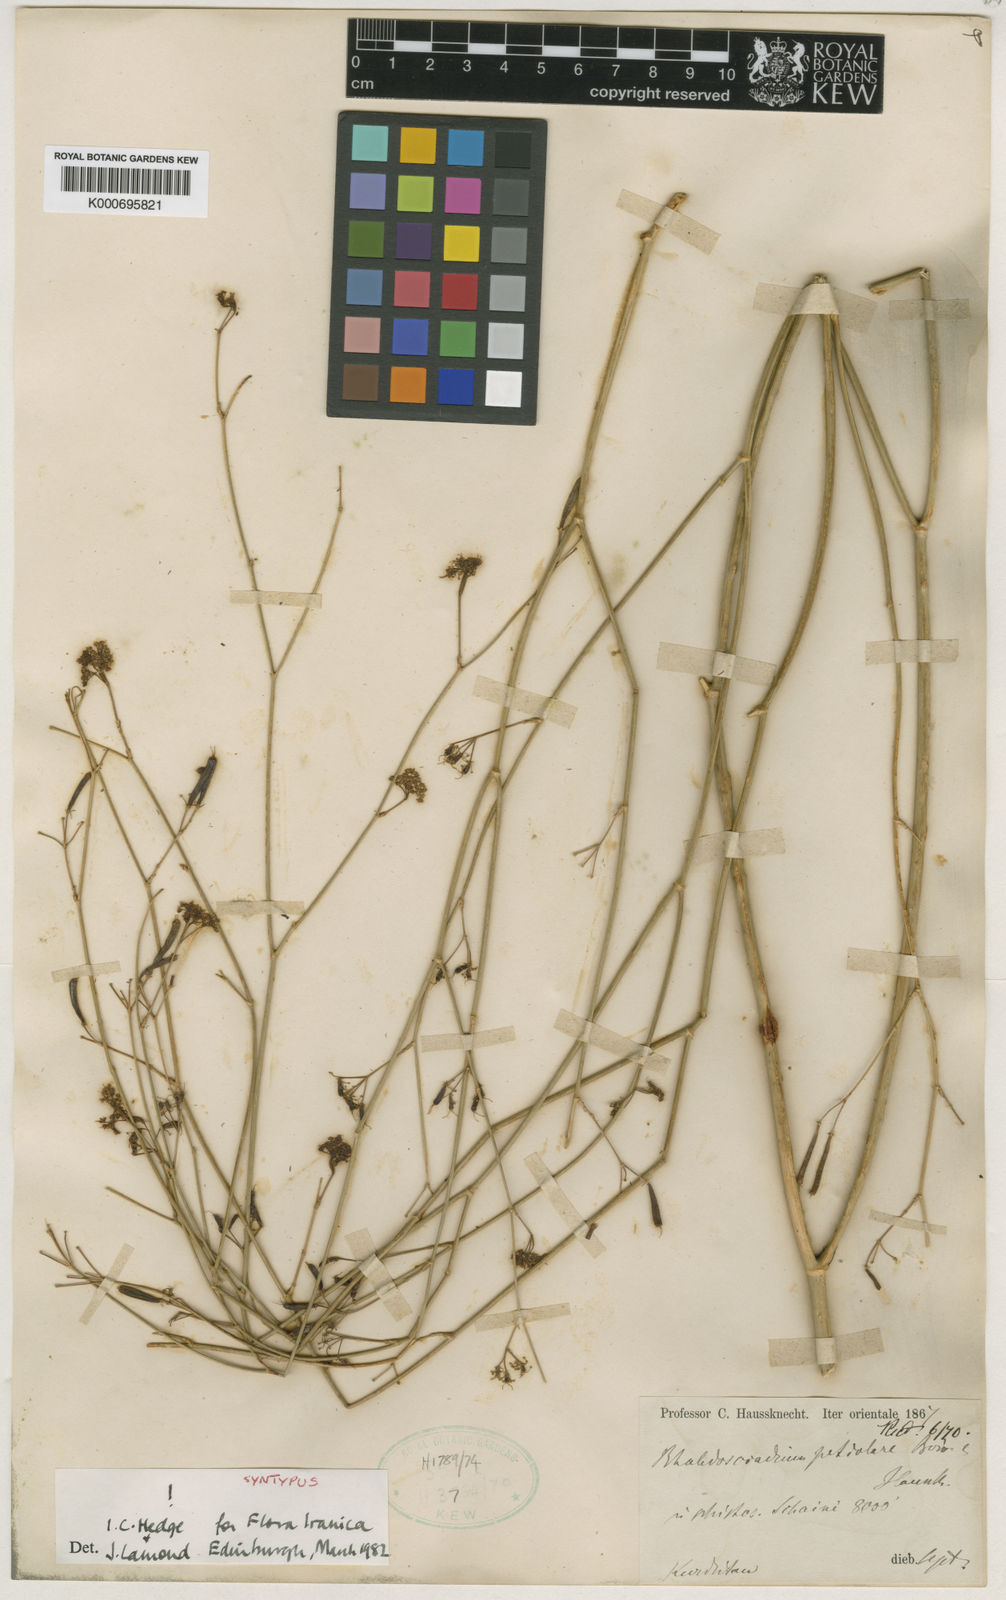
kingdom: Plantae
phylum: Tracheophyta
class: Magnoliopsida
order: Apiales
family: Apiaceae
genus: Rhabdosciadium
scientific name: Rhabdosciadium petiolare
